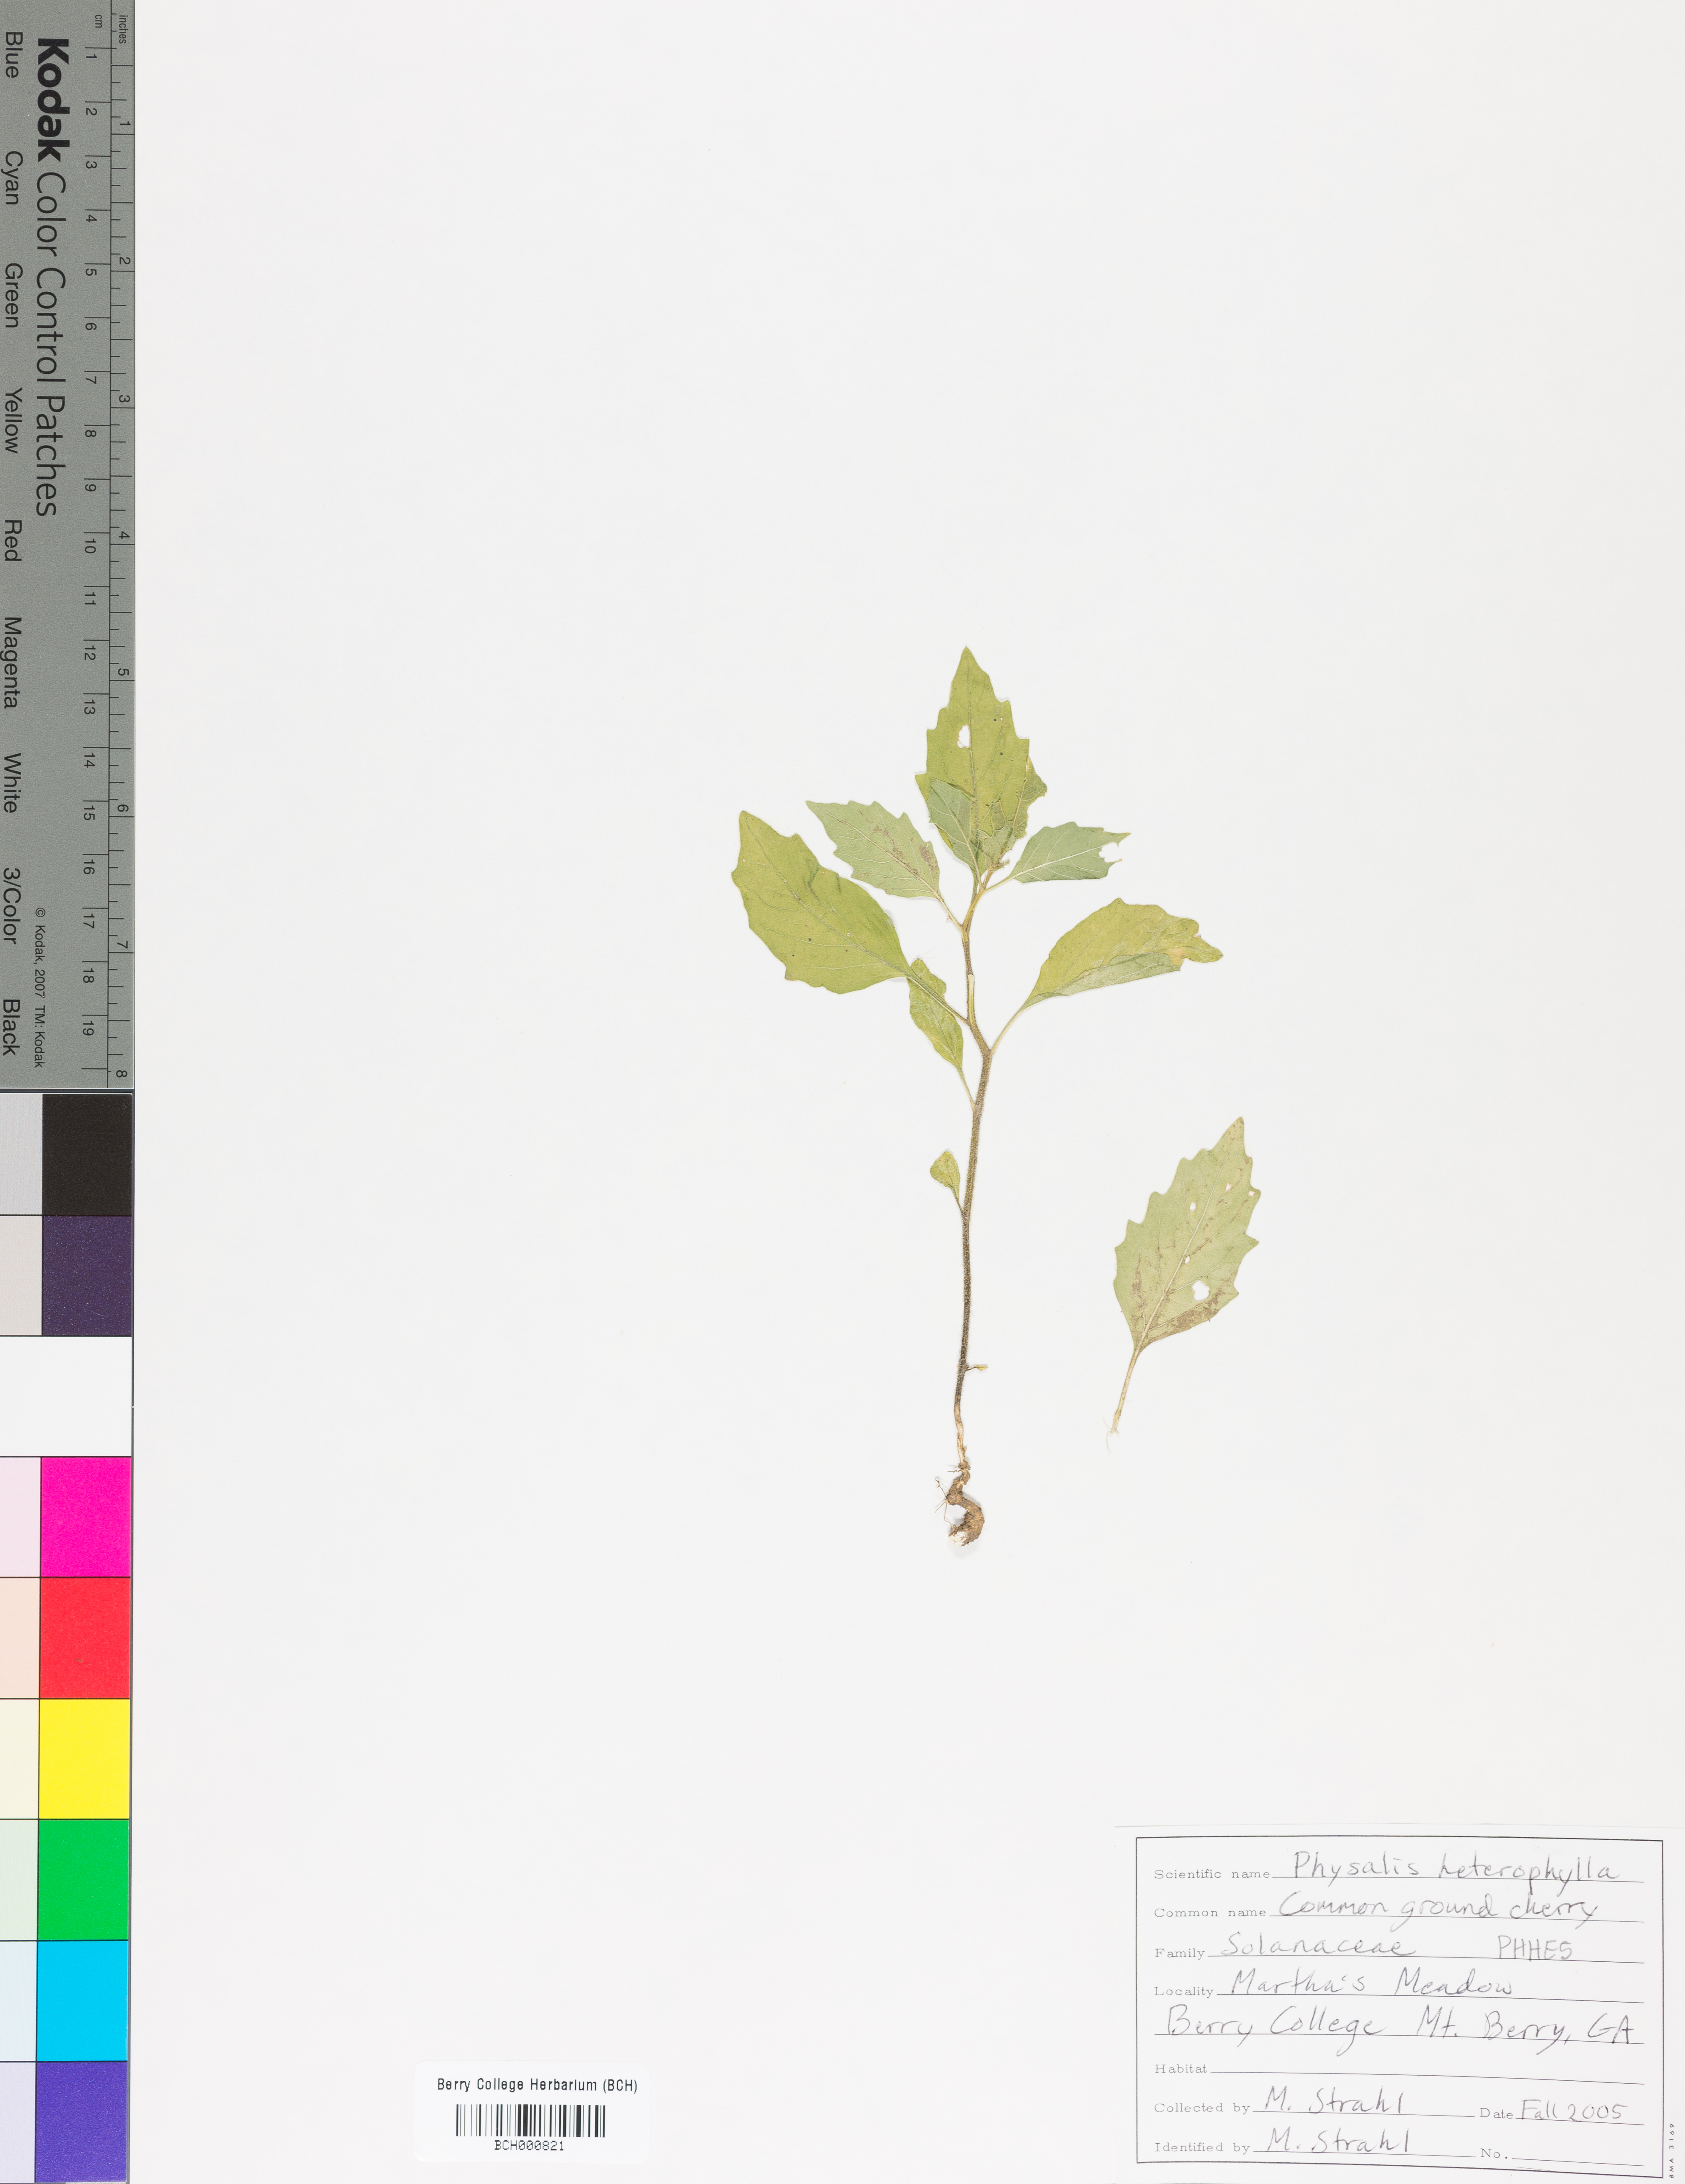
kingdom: Plantae
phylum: Tracheophyta
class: Magnoliopsida
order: Solanales
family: Solanaceae
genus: Physalis
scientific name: Physalis heterophylla
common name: Clammy ground-cherry
